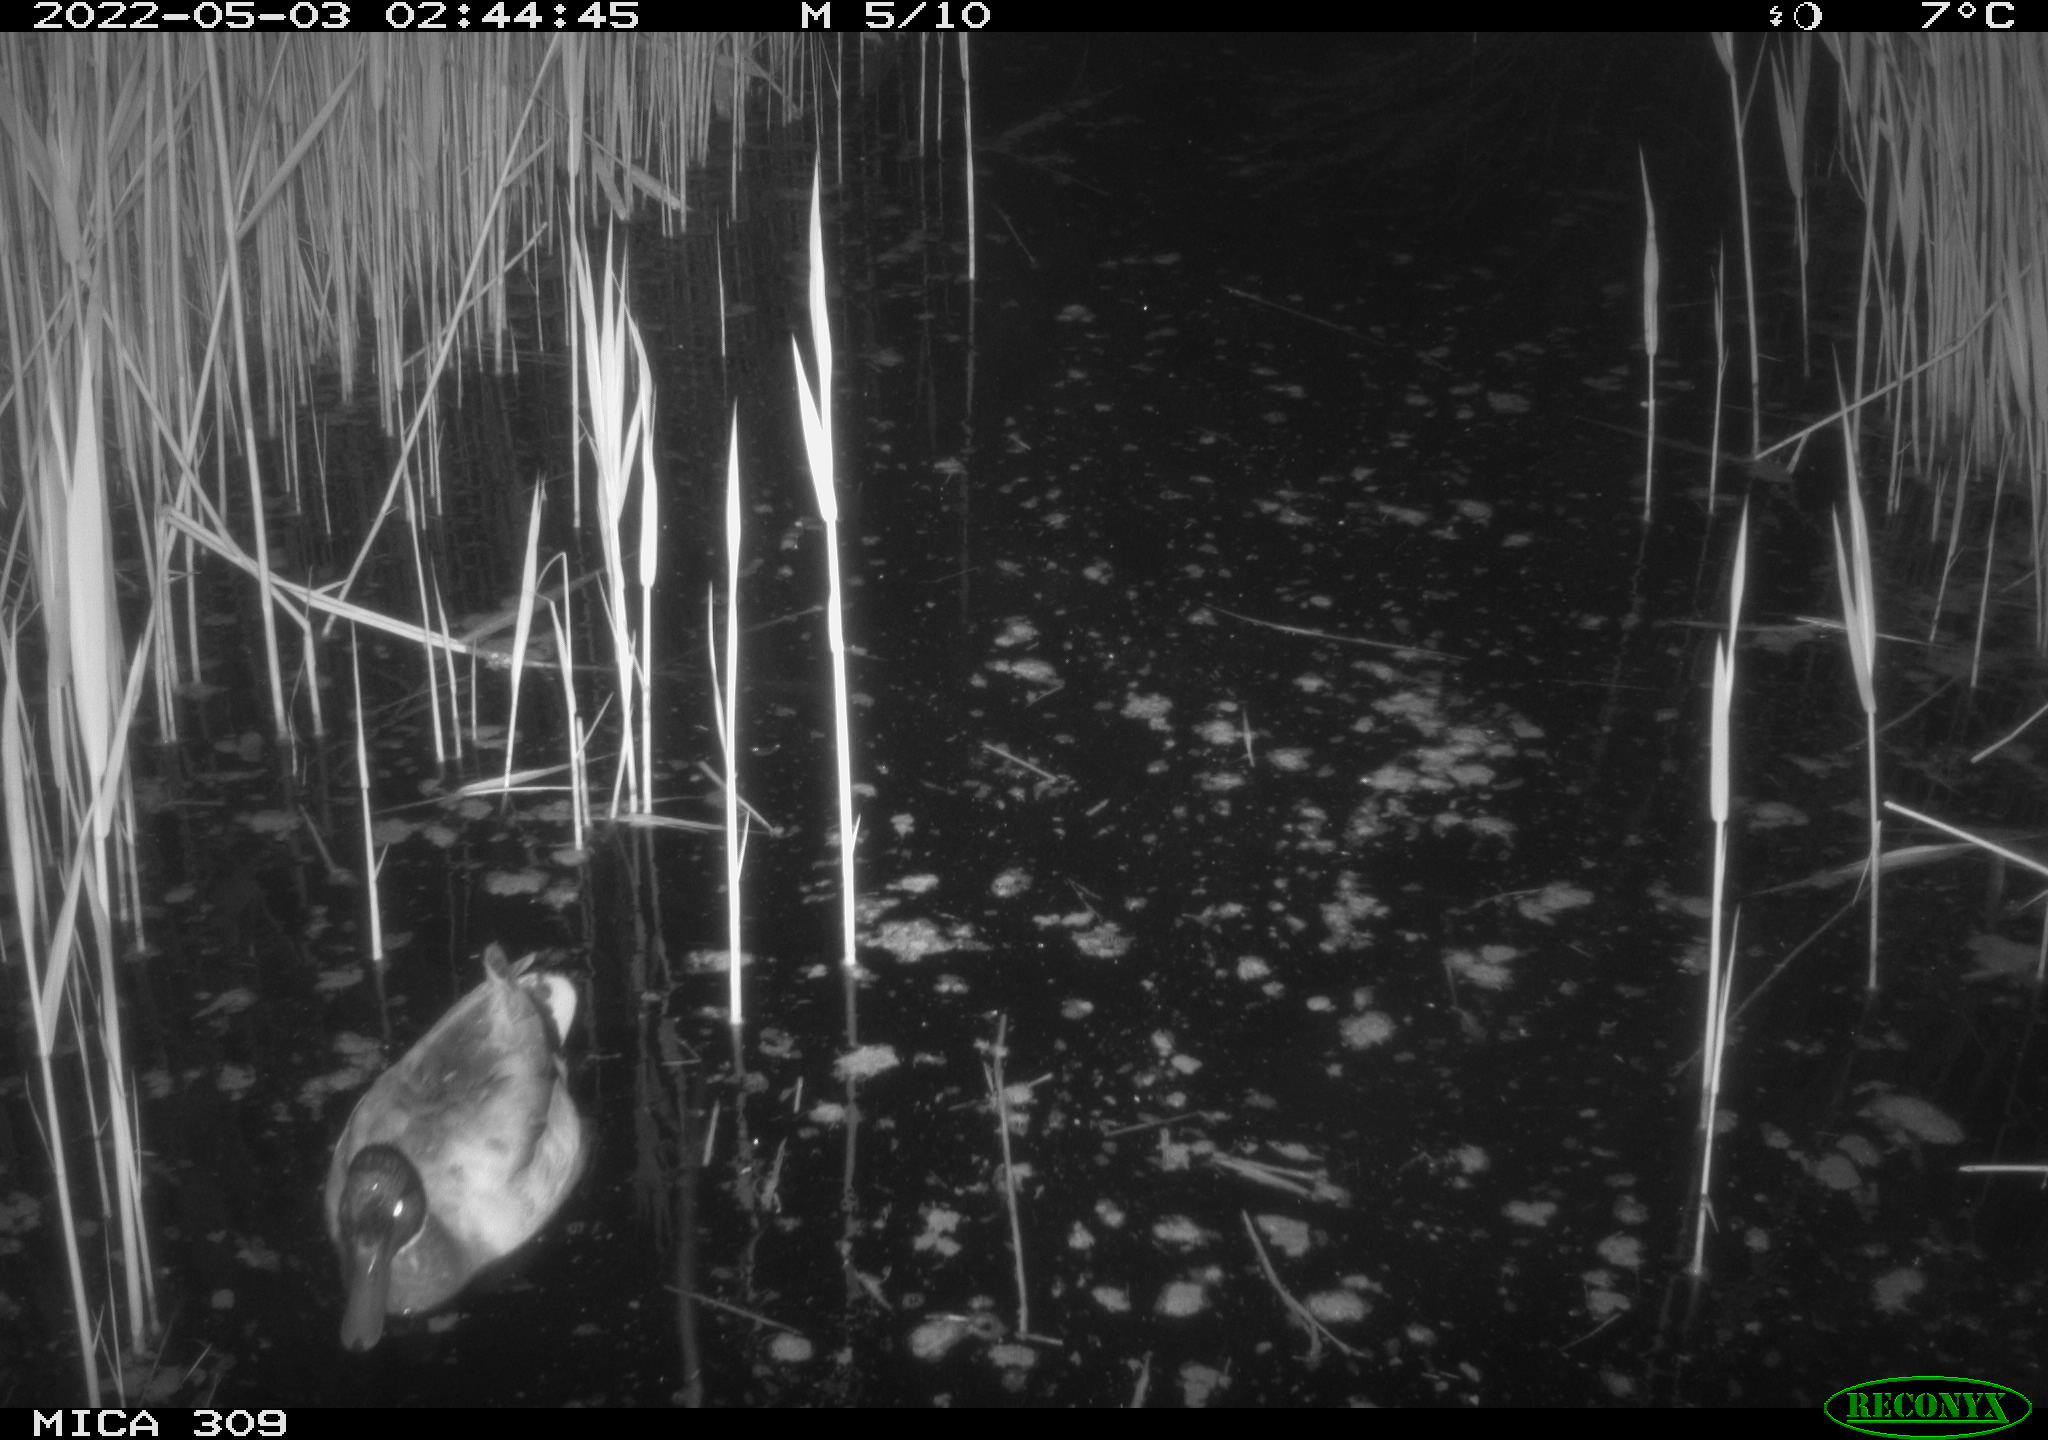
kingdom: Animalia
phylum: Chordata
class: Aves
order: Gruiformes
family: Rallidae
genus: Gallinula
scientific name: Gallinula chloropus
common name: Common moorhen
